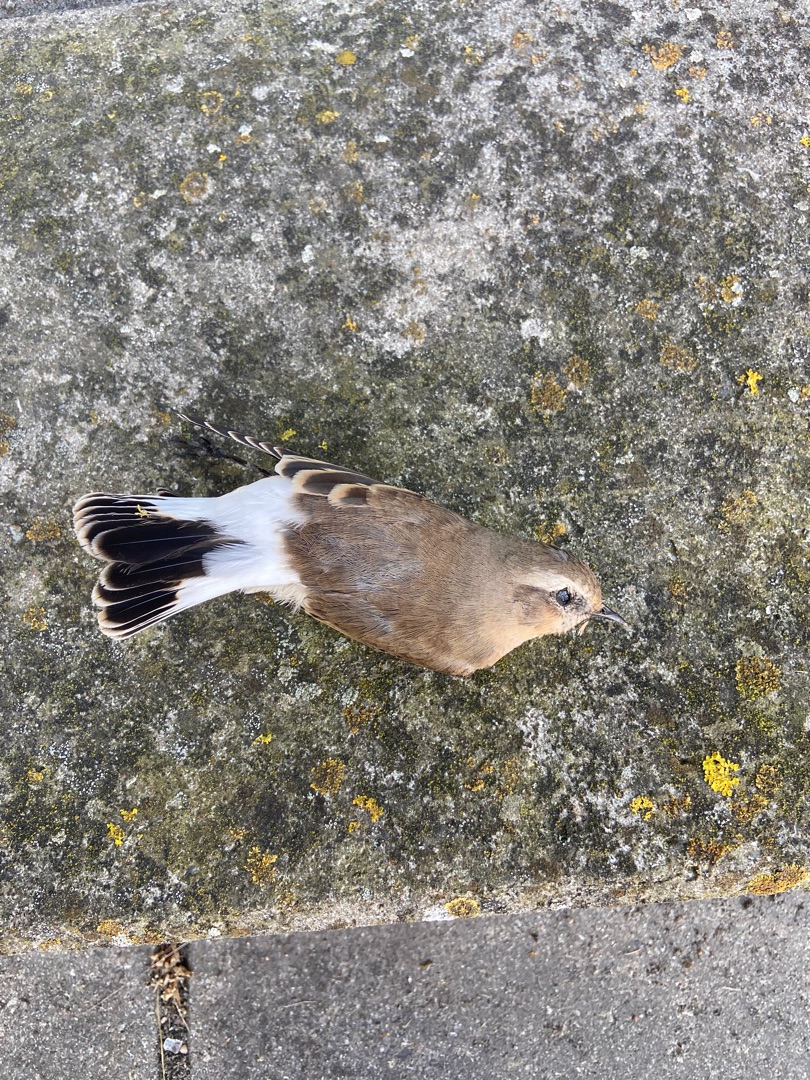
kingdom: Animalia
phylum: Chordata
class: Aves
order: Passeriformes
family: Muscicapidae
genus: Oenanthe
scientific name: Oenanthe oenanthe
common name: Stenpikker
